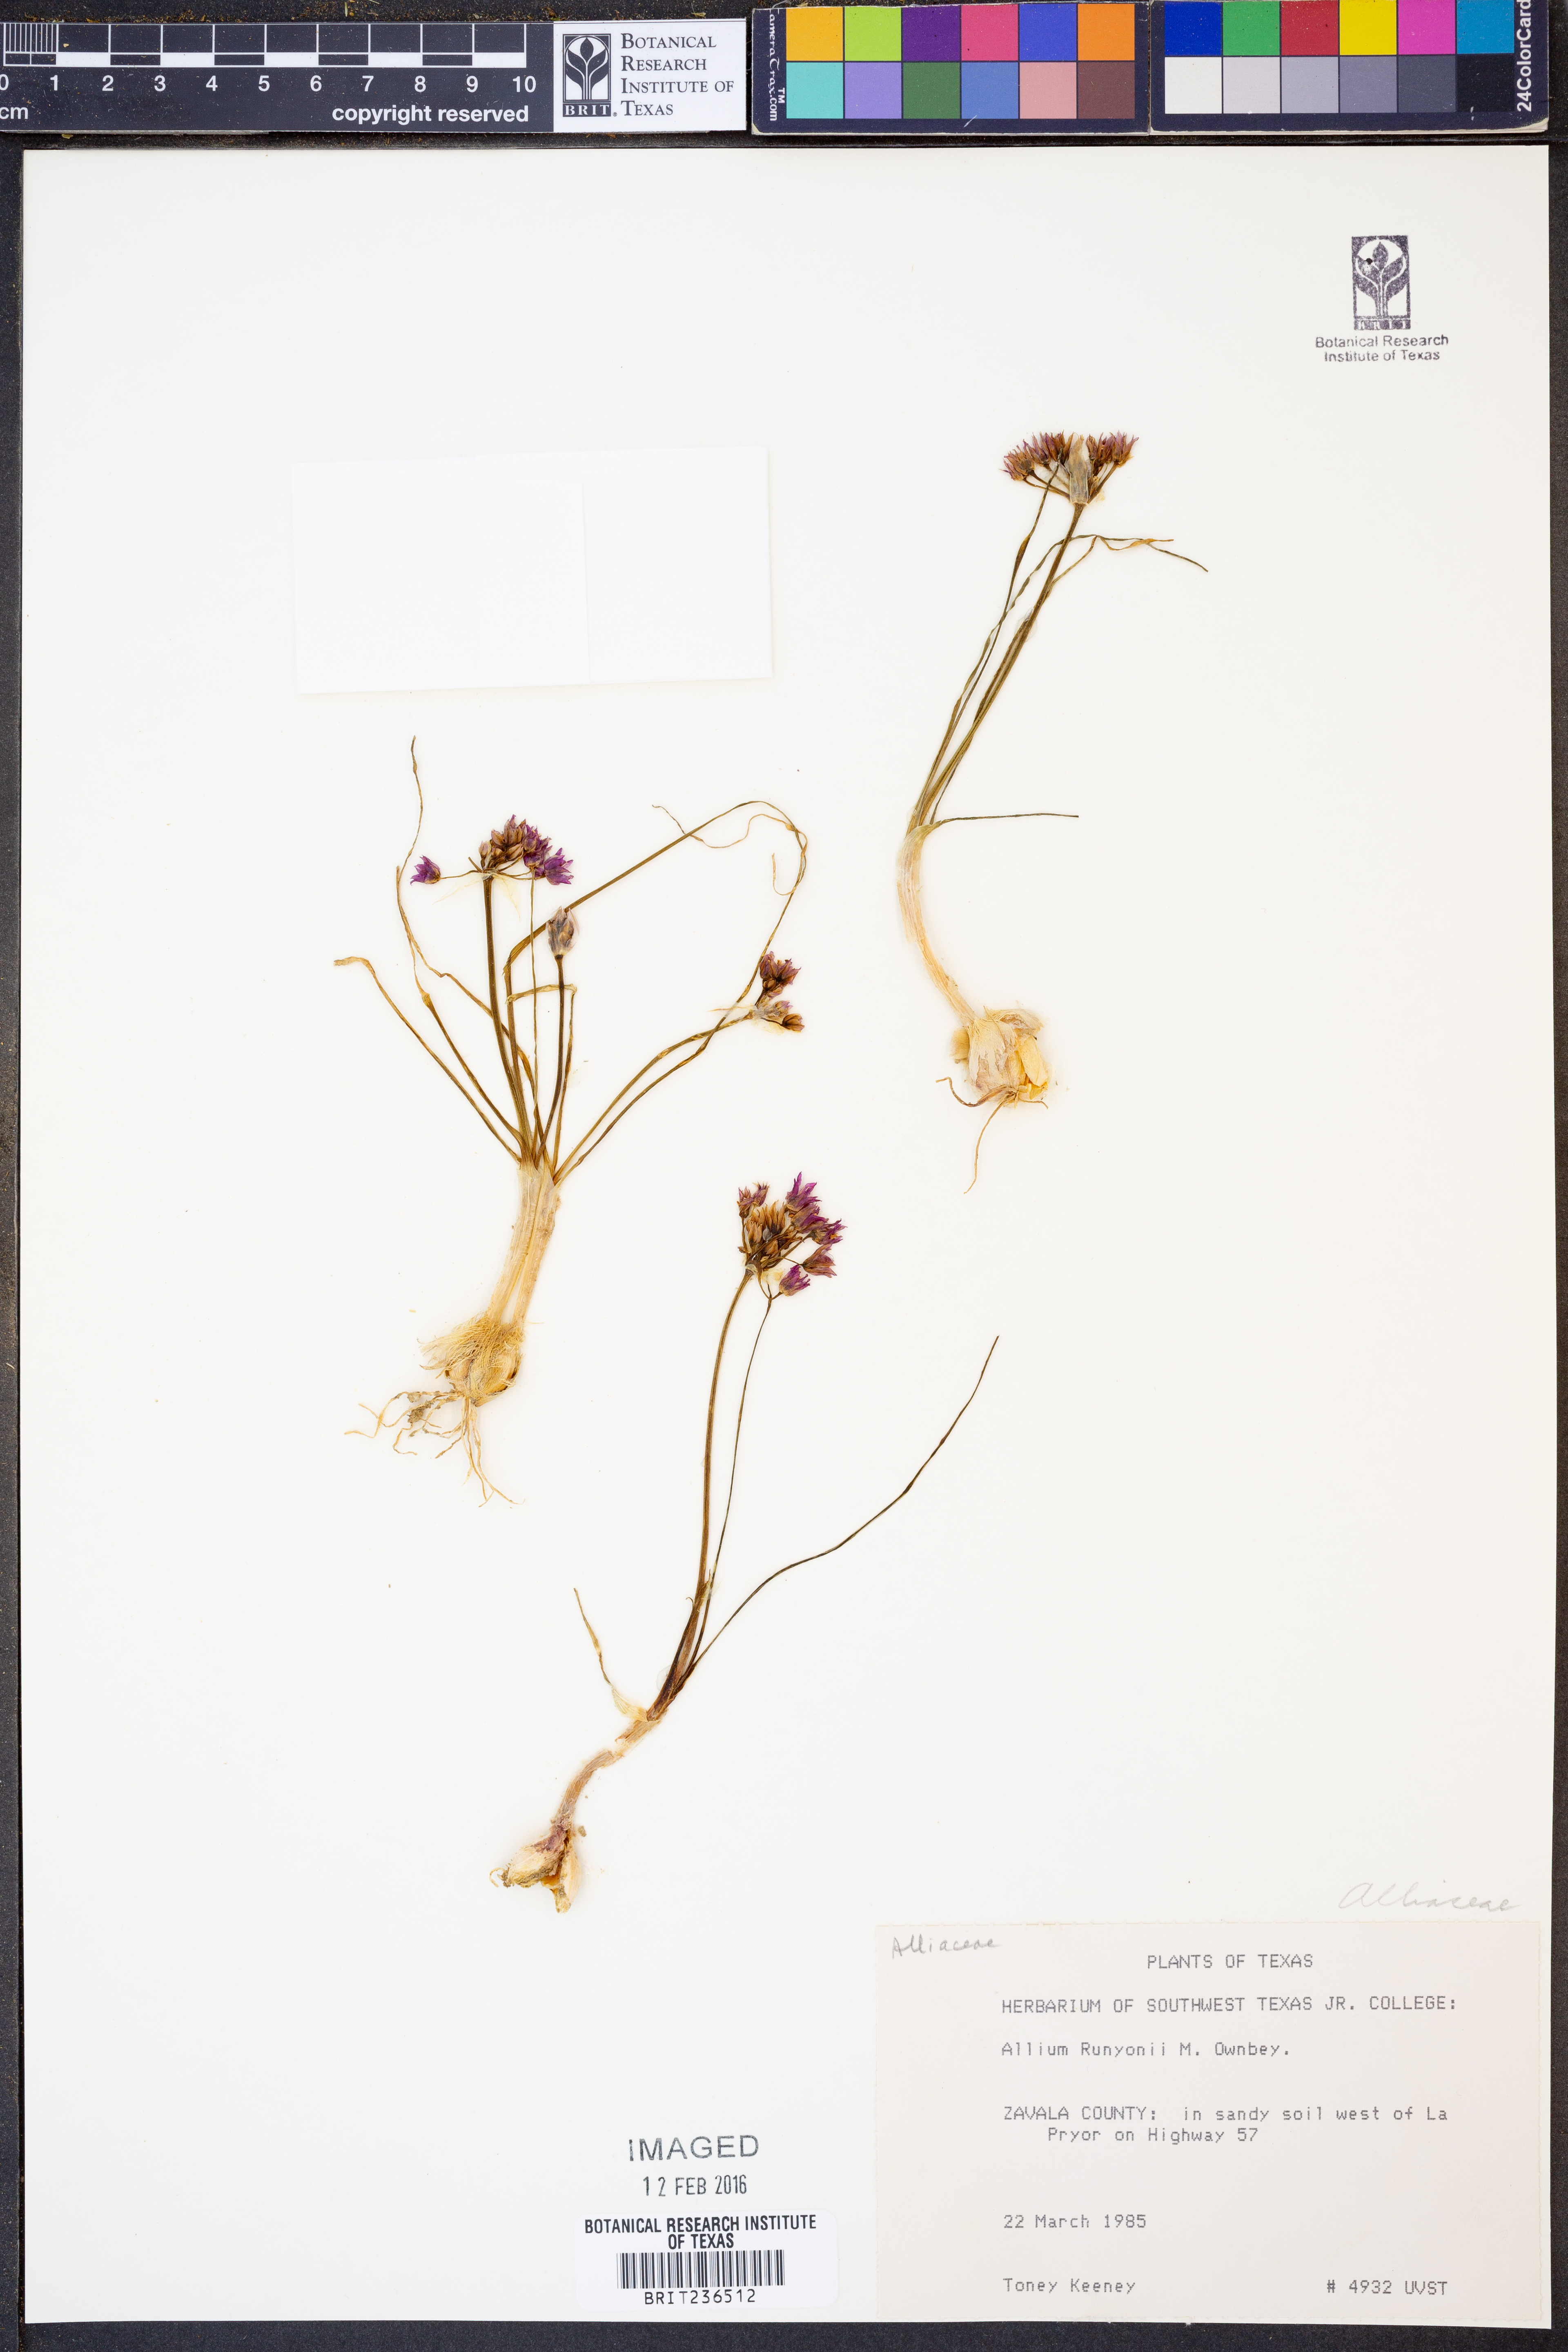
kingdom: Plantae
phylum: Tracheophyta
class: Liliopsida
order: Asparagales
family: Amaryllidaceae
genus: Allium
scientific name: Allium runyonii
